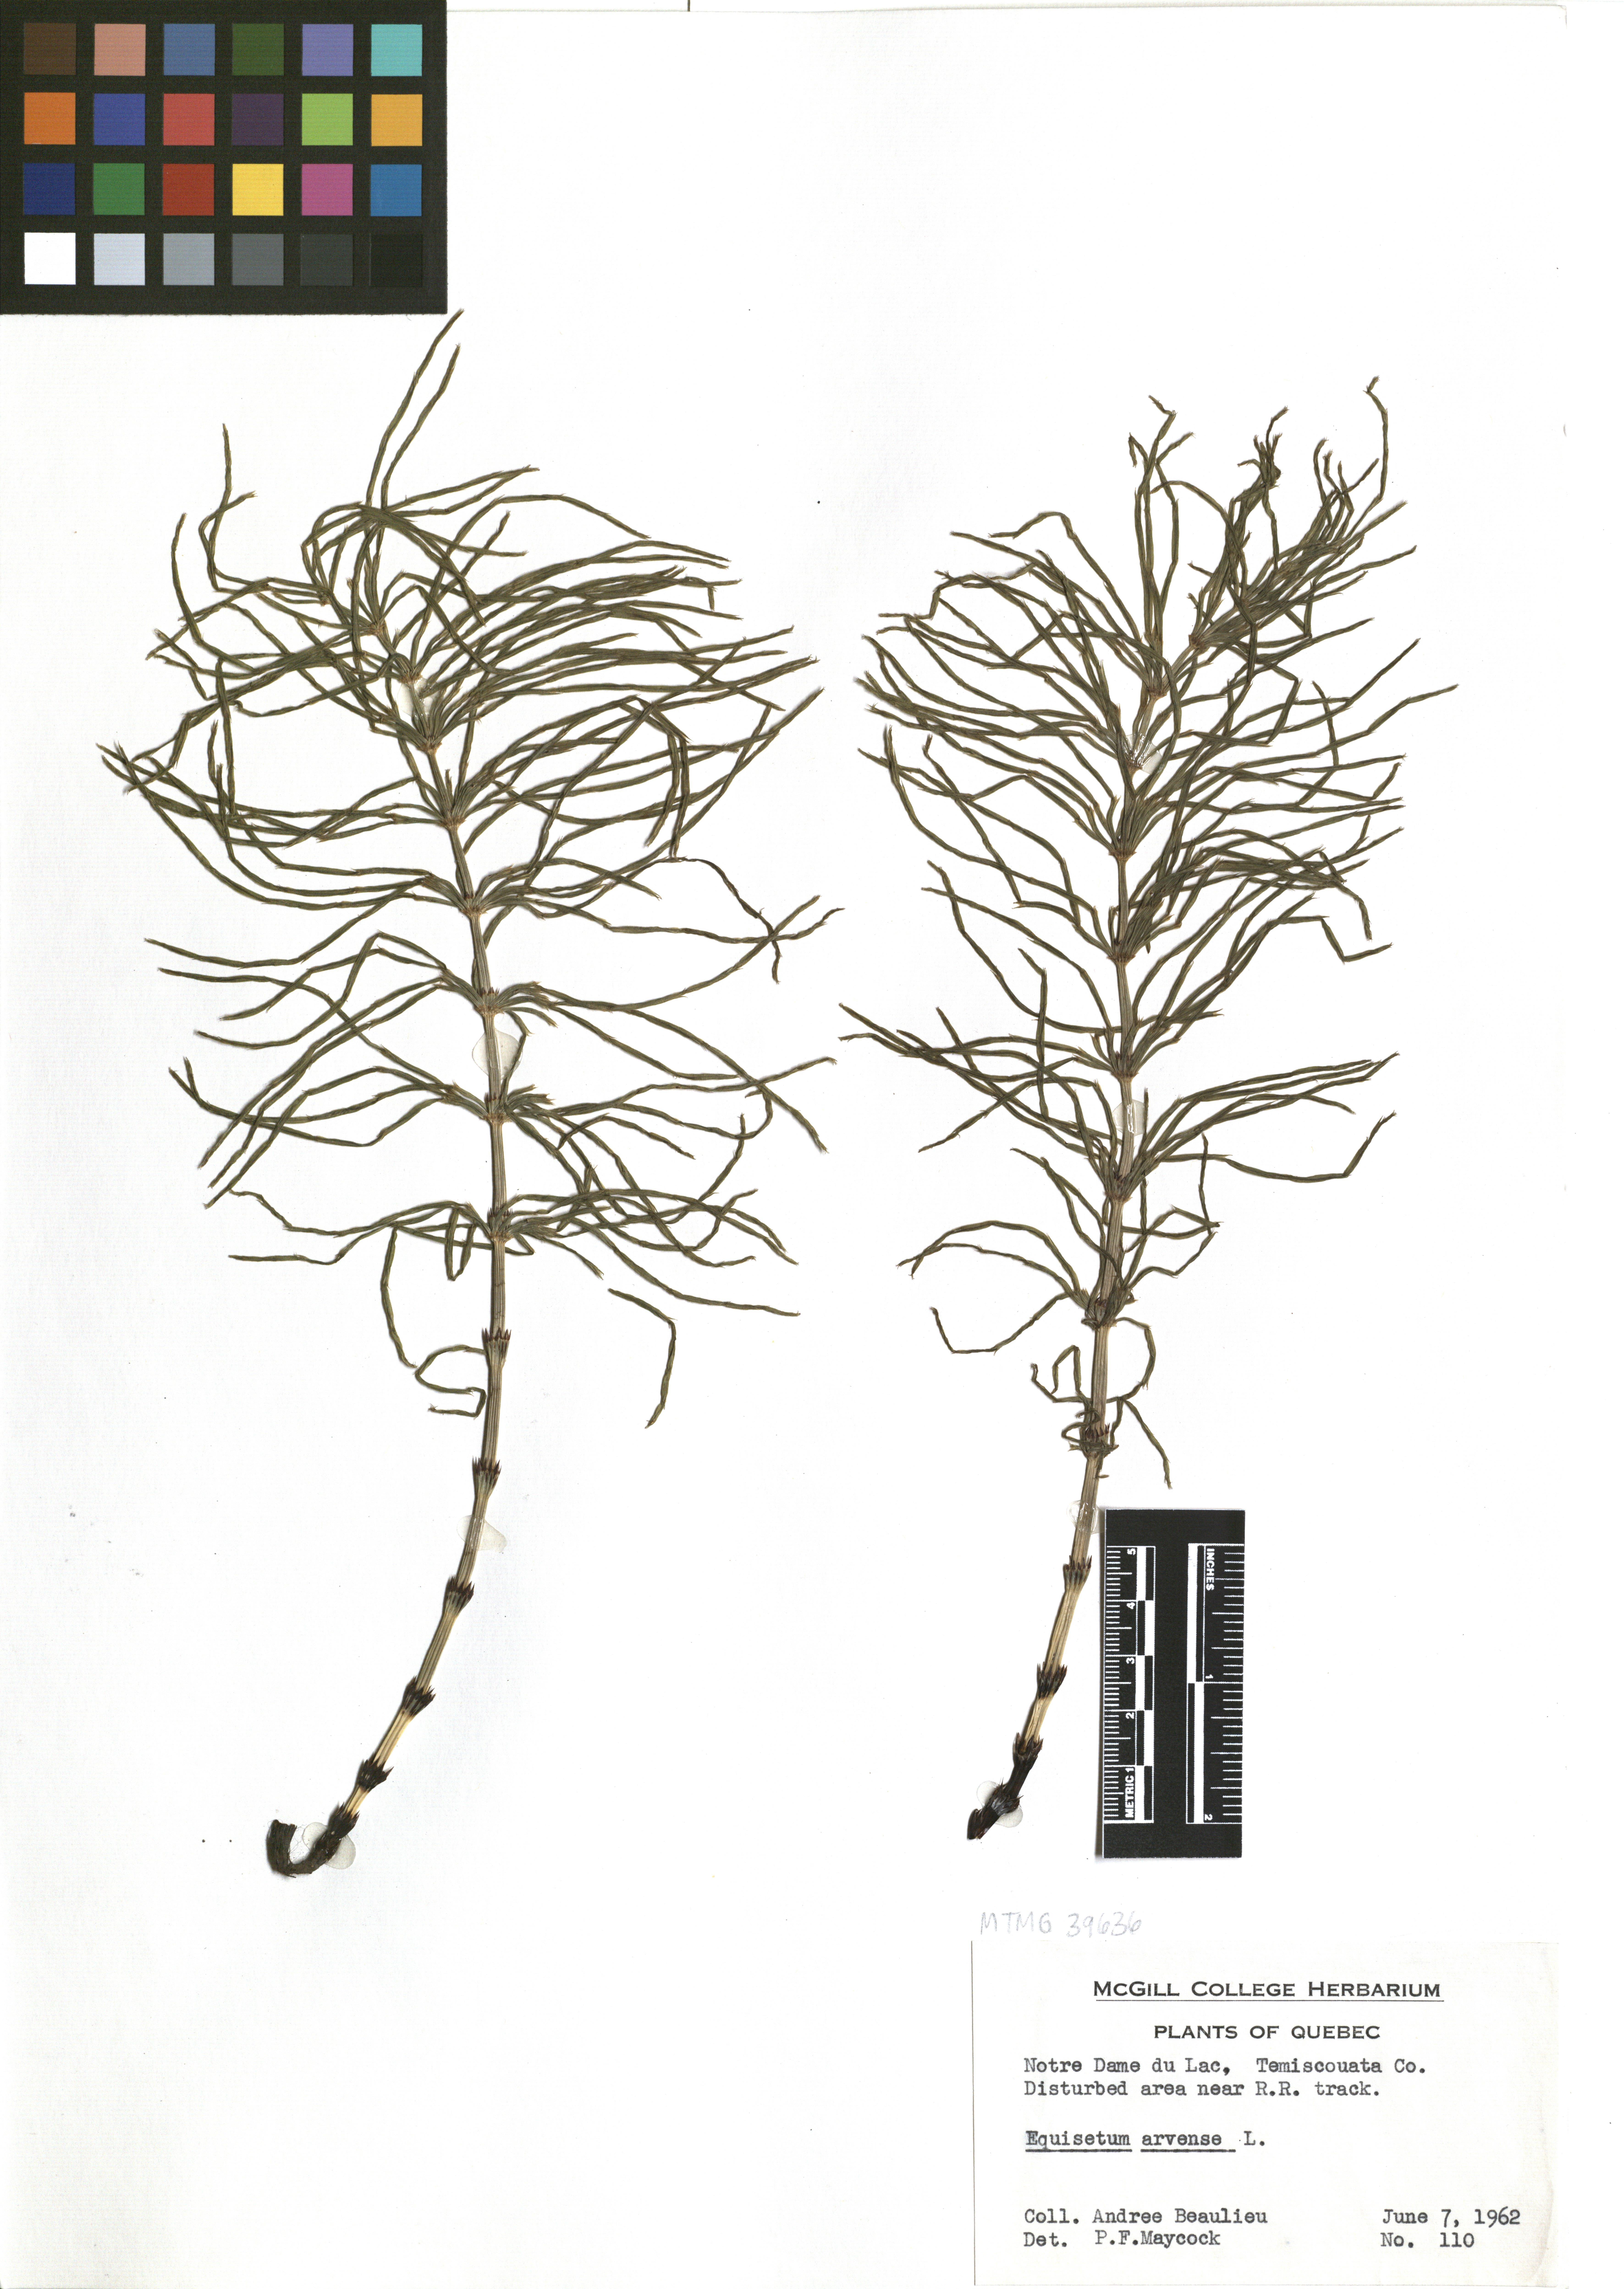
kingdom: Plantae
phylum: Tracheophyta
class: Polypodiopsida
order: Equisetales
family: Equisetaceae
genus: Equisetum
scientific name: Equisetum arvense
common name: Field horsetail
